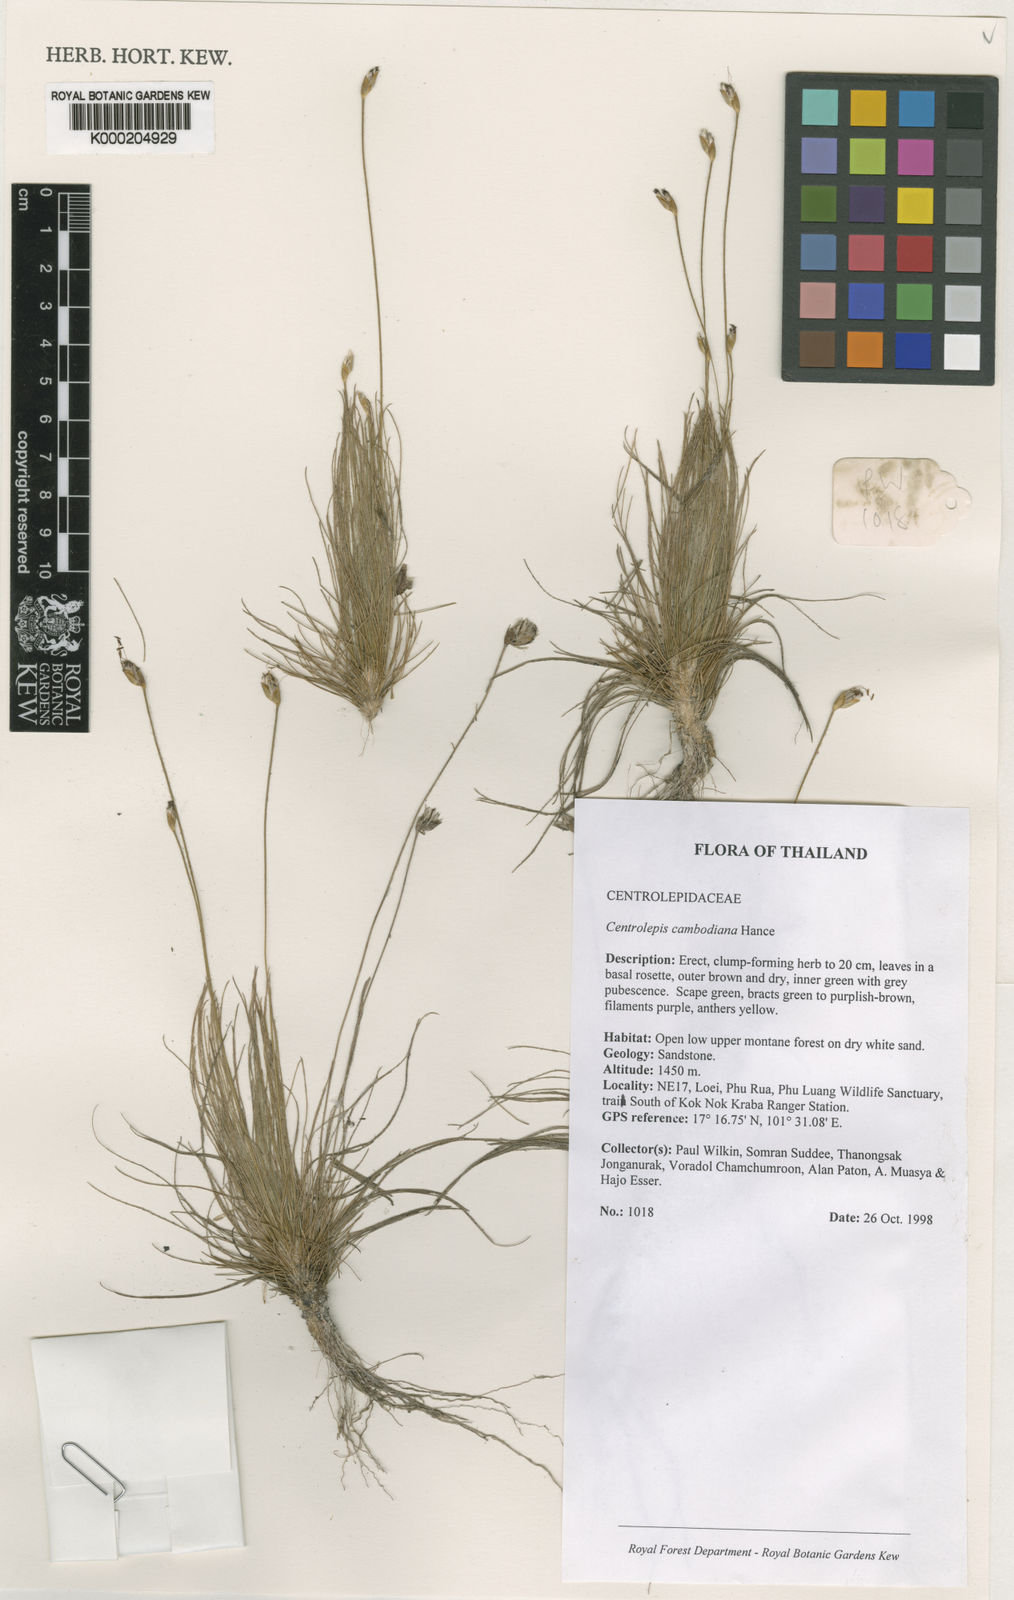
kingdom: Plantae
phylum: Tracheophyta
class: Liliopsida
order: Poales
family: Restionaceae
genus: Centrolepis
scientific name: Centrolepis cambodiana
